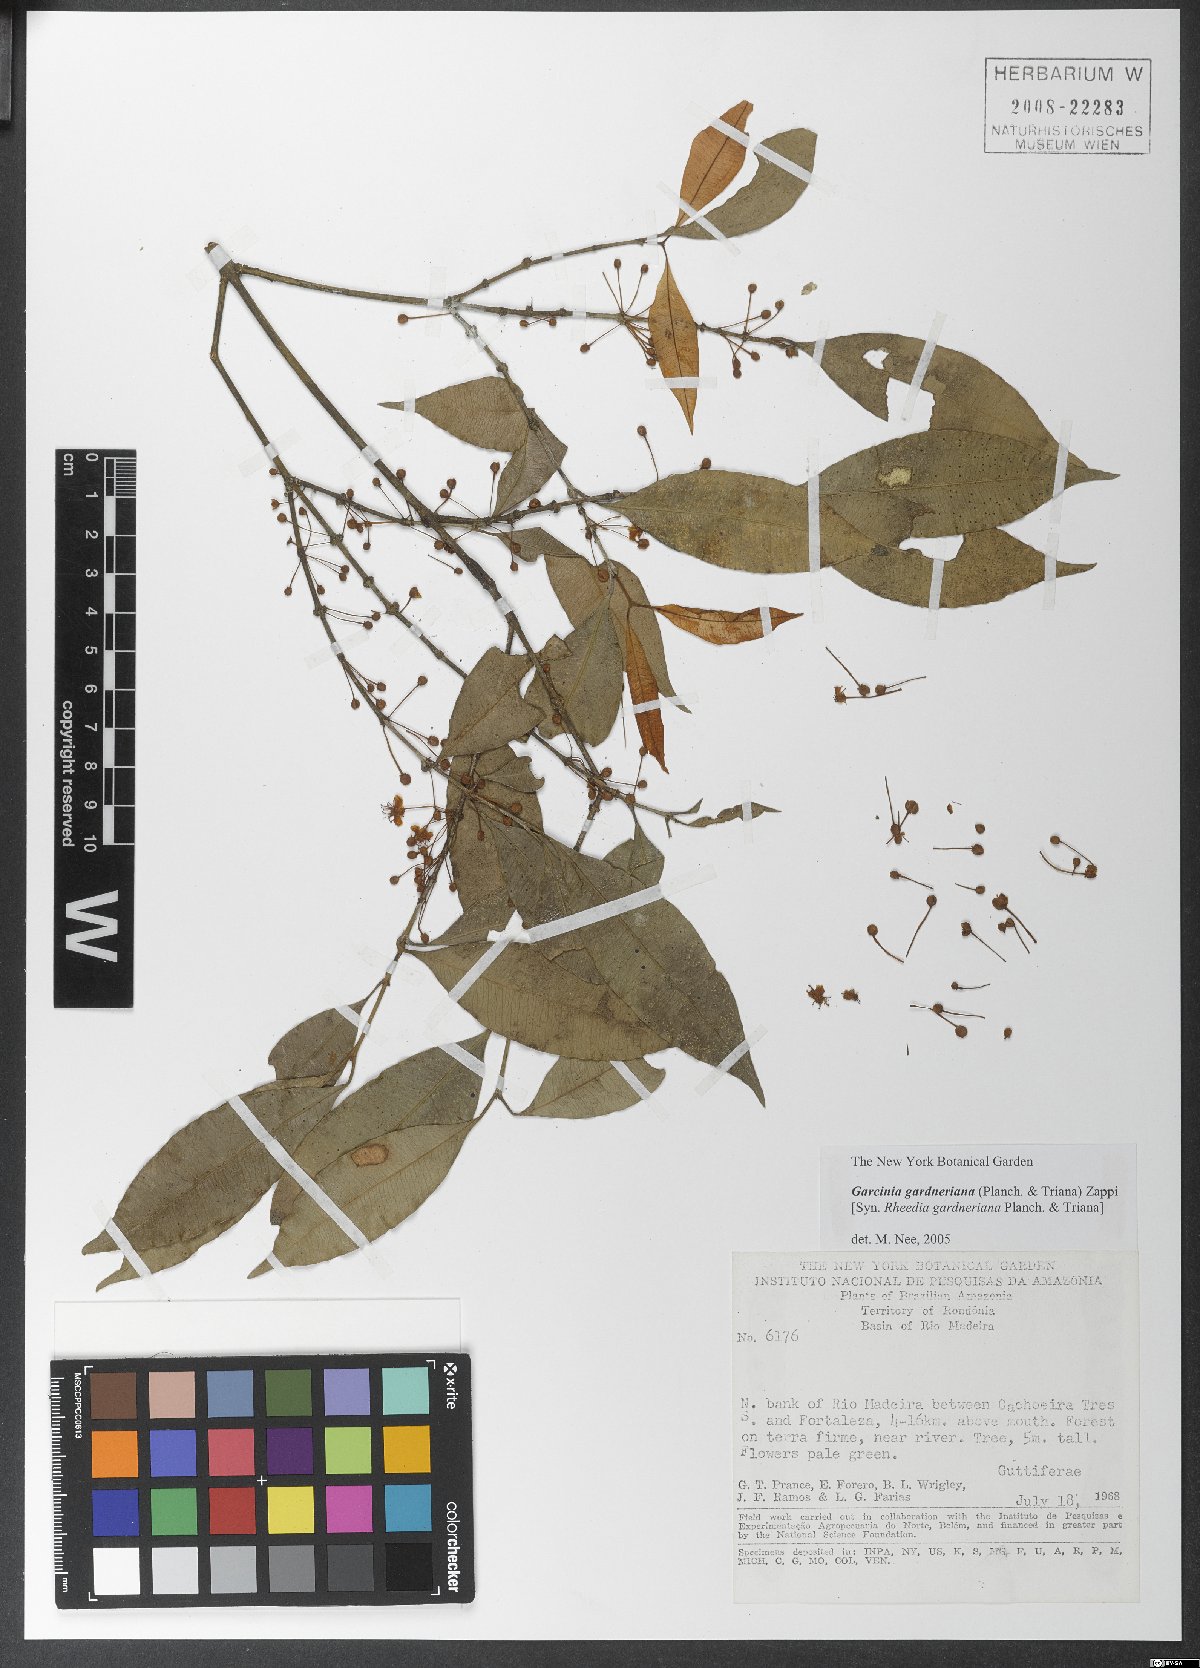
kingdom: Plantae
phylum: Tracheophyta
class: Magnoliopsida
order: Malpighiales
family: Clusiaceae
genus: Garcinia
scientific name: Garcinia gardneriana
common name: Achacha
